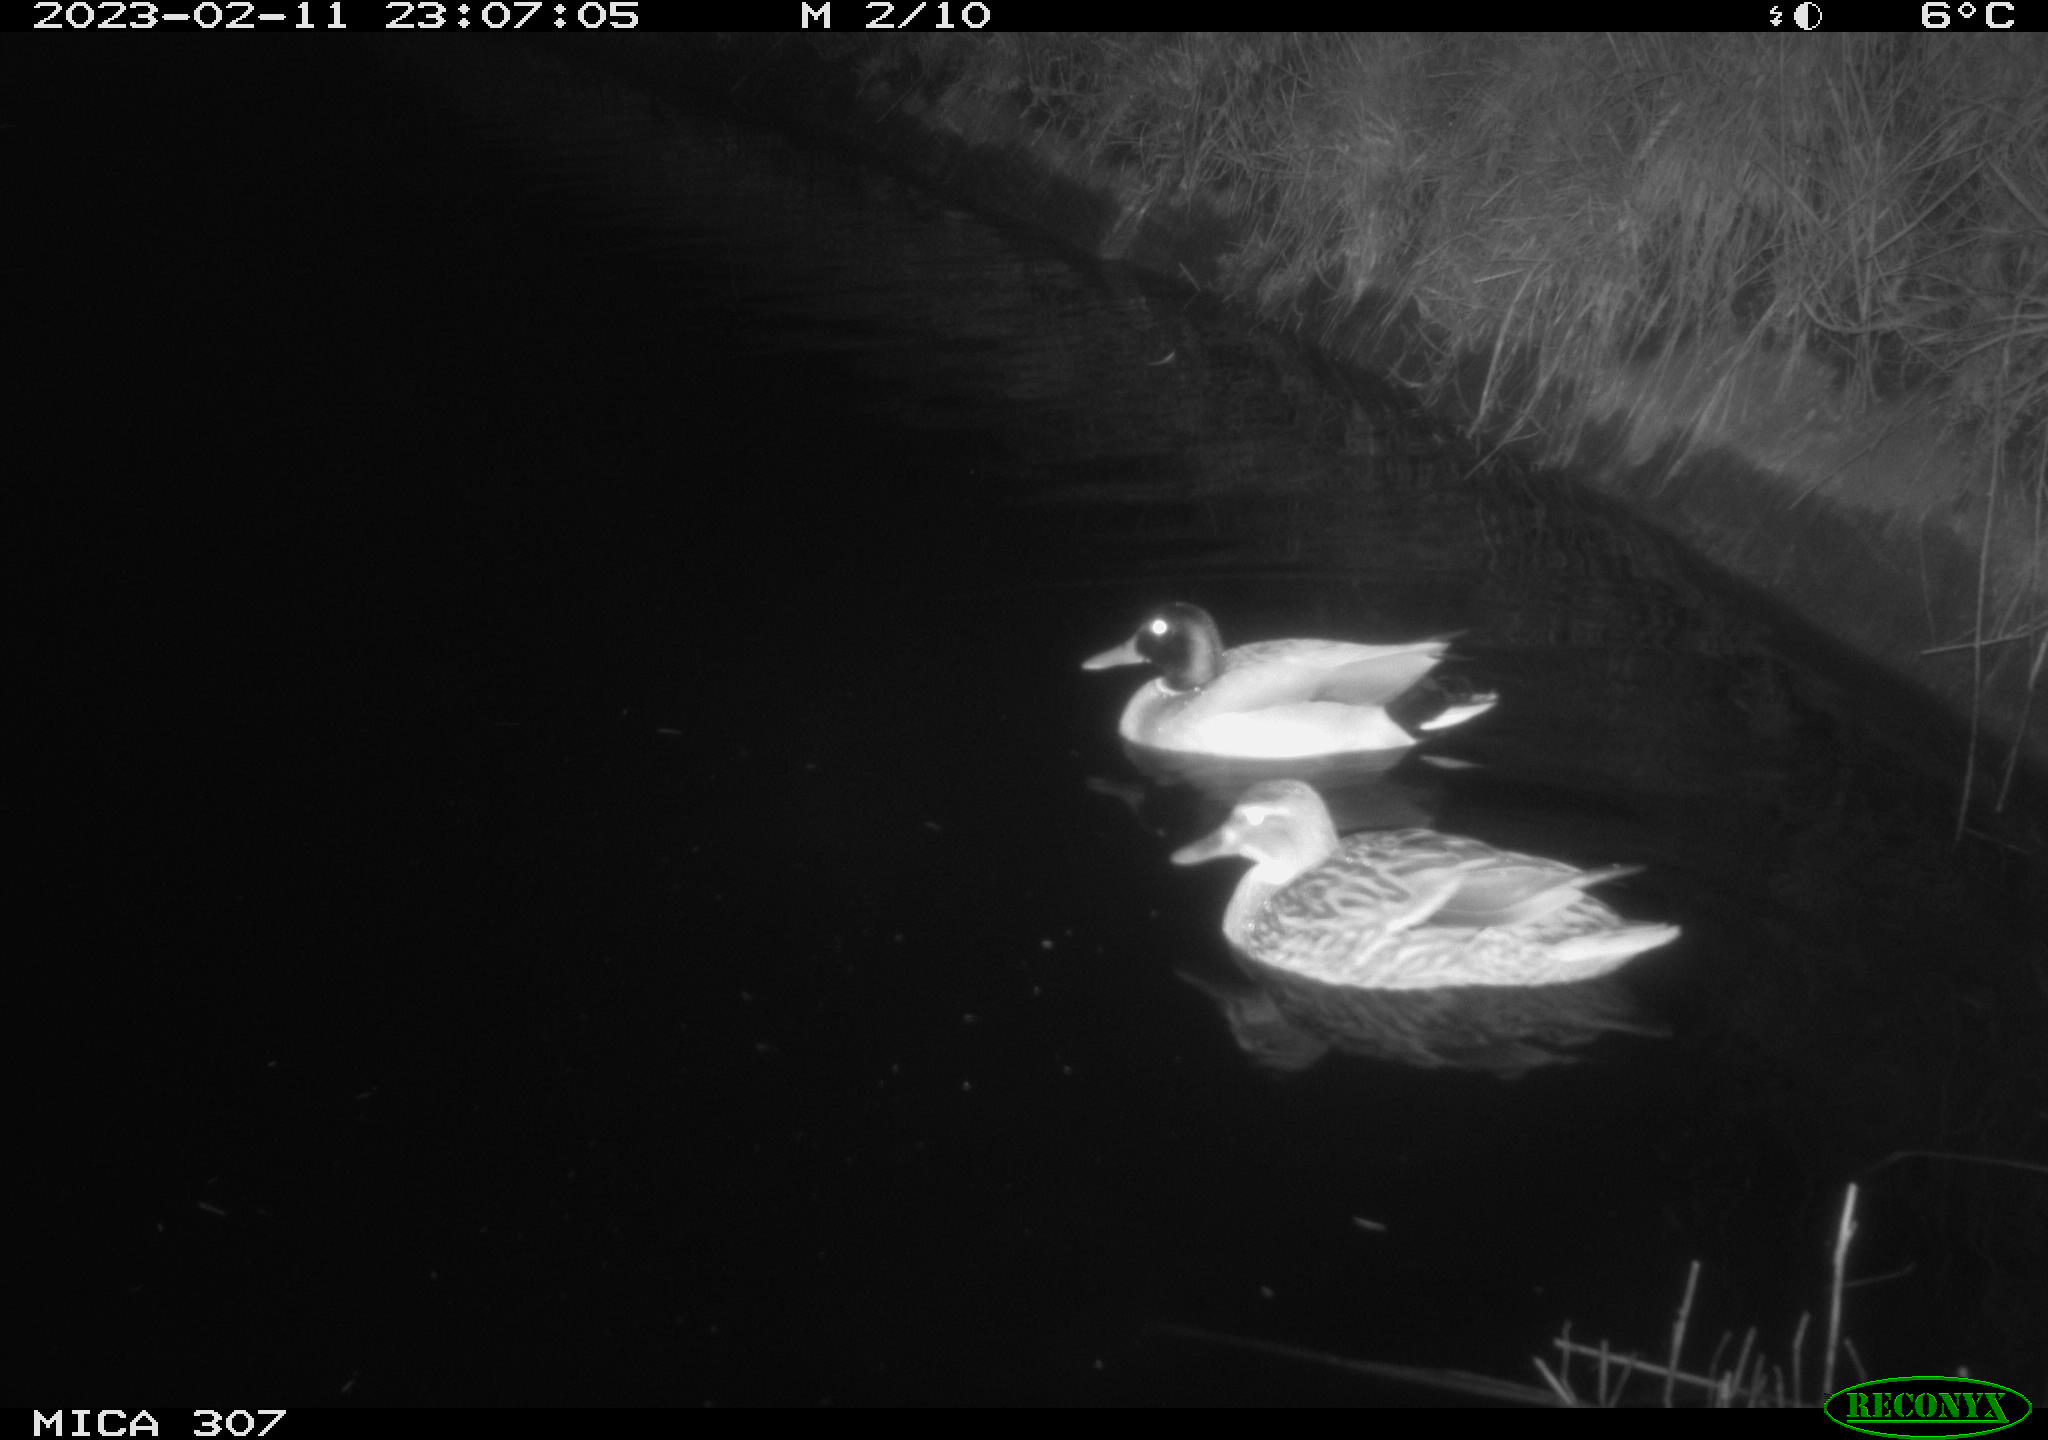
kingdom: Animalia
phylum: Chordata
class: Aves
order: Anseriformes
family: Anatidae
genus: Anas
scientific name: Anas
